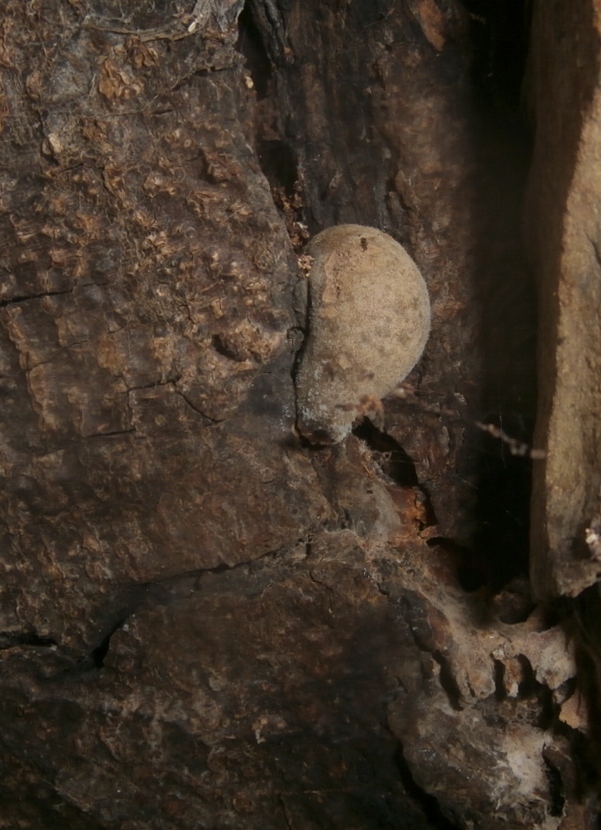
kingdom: Protozoa
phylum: Mycetozoa
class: Myxomycetes
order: Cribrariales
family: Tubiferaceae
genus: Lycogala
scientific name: Lycogala flavofuscum
